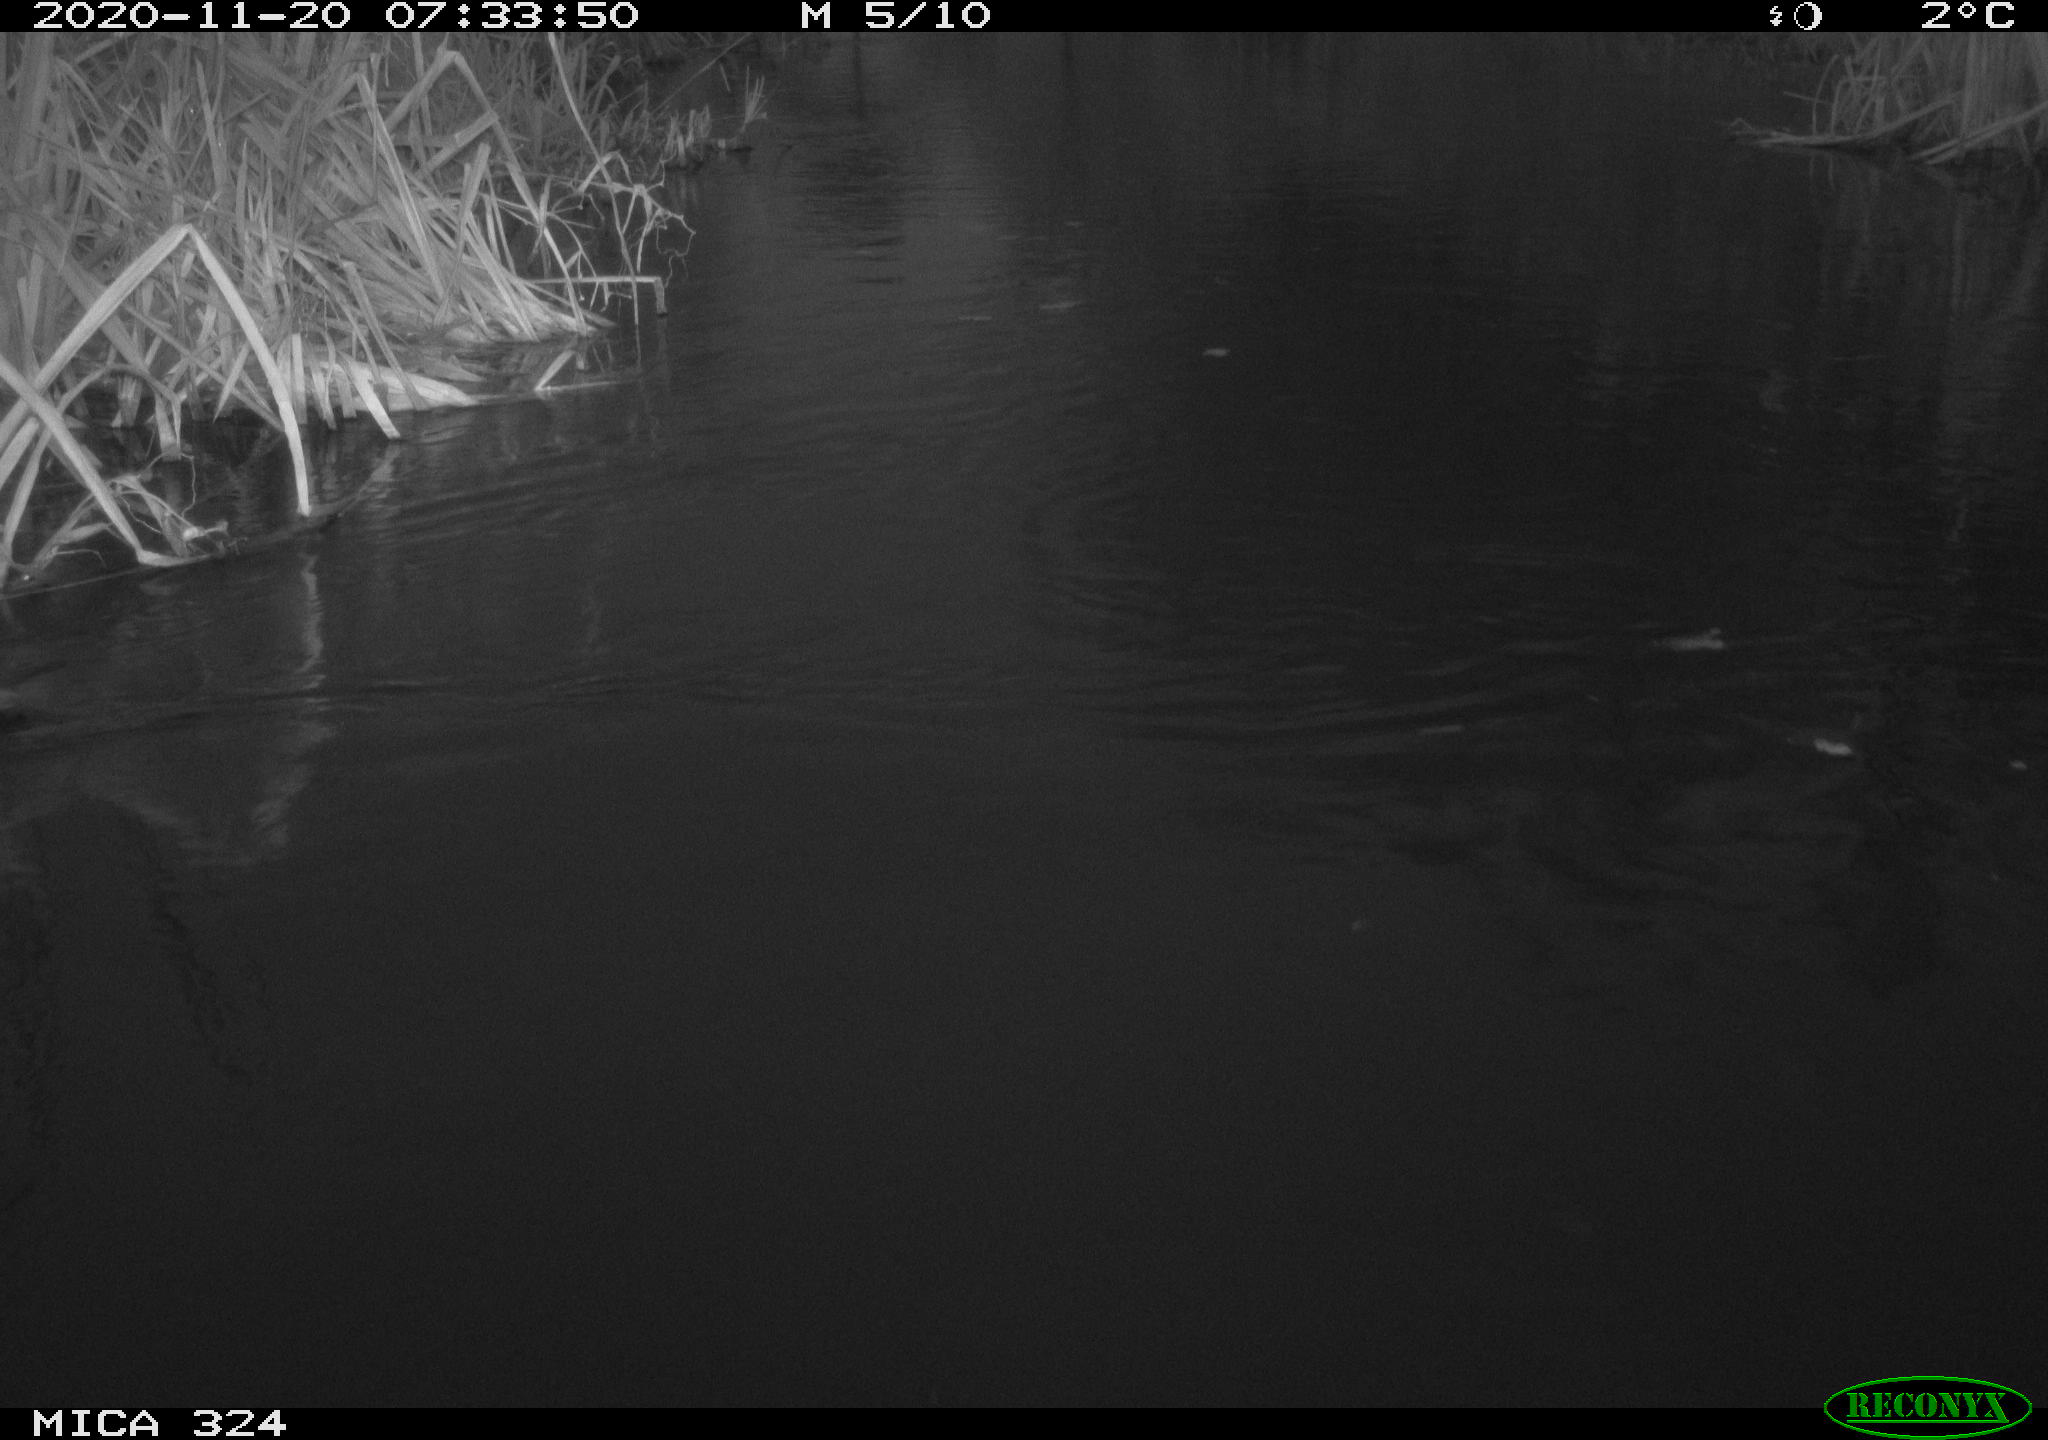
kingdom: Animalia
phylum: Chordata
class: Aves
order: Gruiformes
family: Rallidae
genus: Gallinula
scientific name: Gallinula chloropus
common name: Common moorhen
